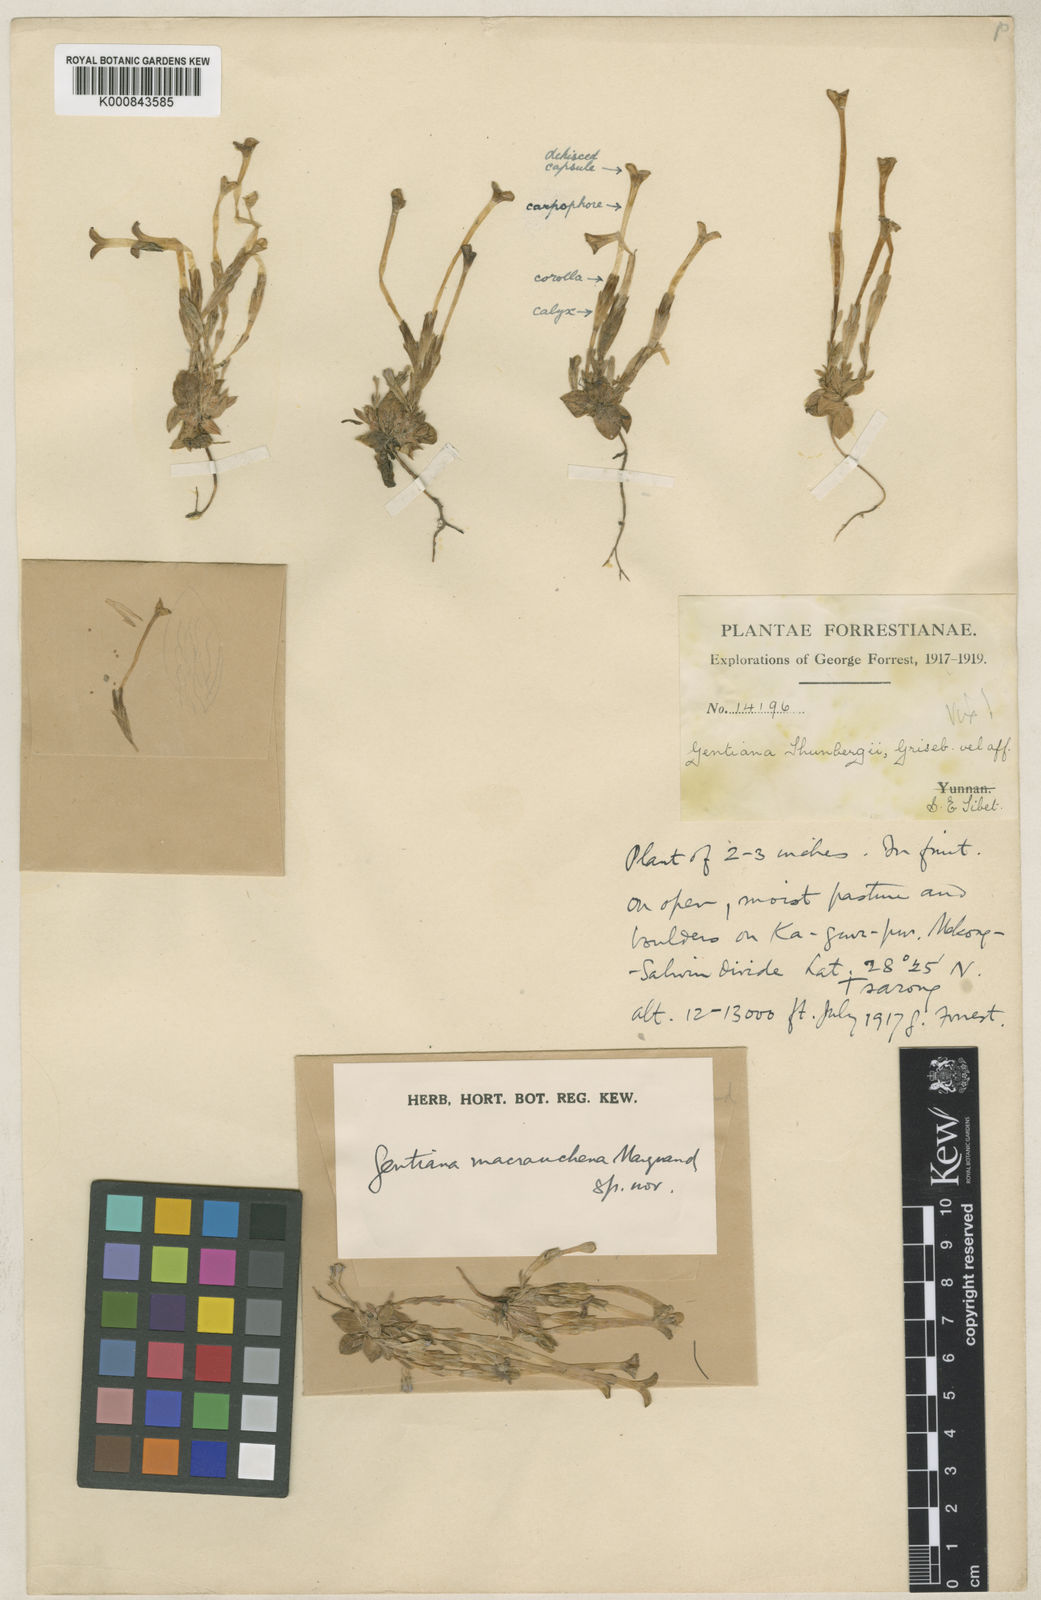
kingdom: Plantae
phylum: Tracheophyta
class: Magnoliopsida
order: Gentianales
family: Gentianaceae
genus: Gentiana
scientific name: Gentiana chungtienensis
